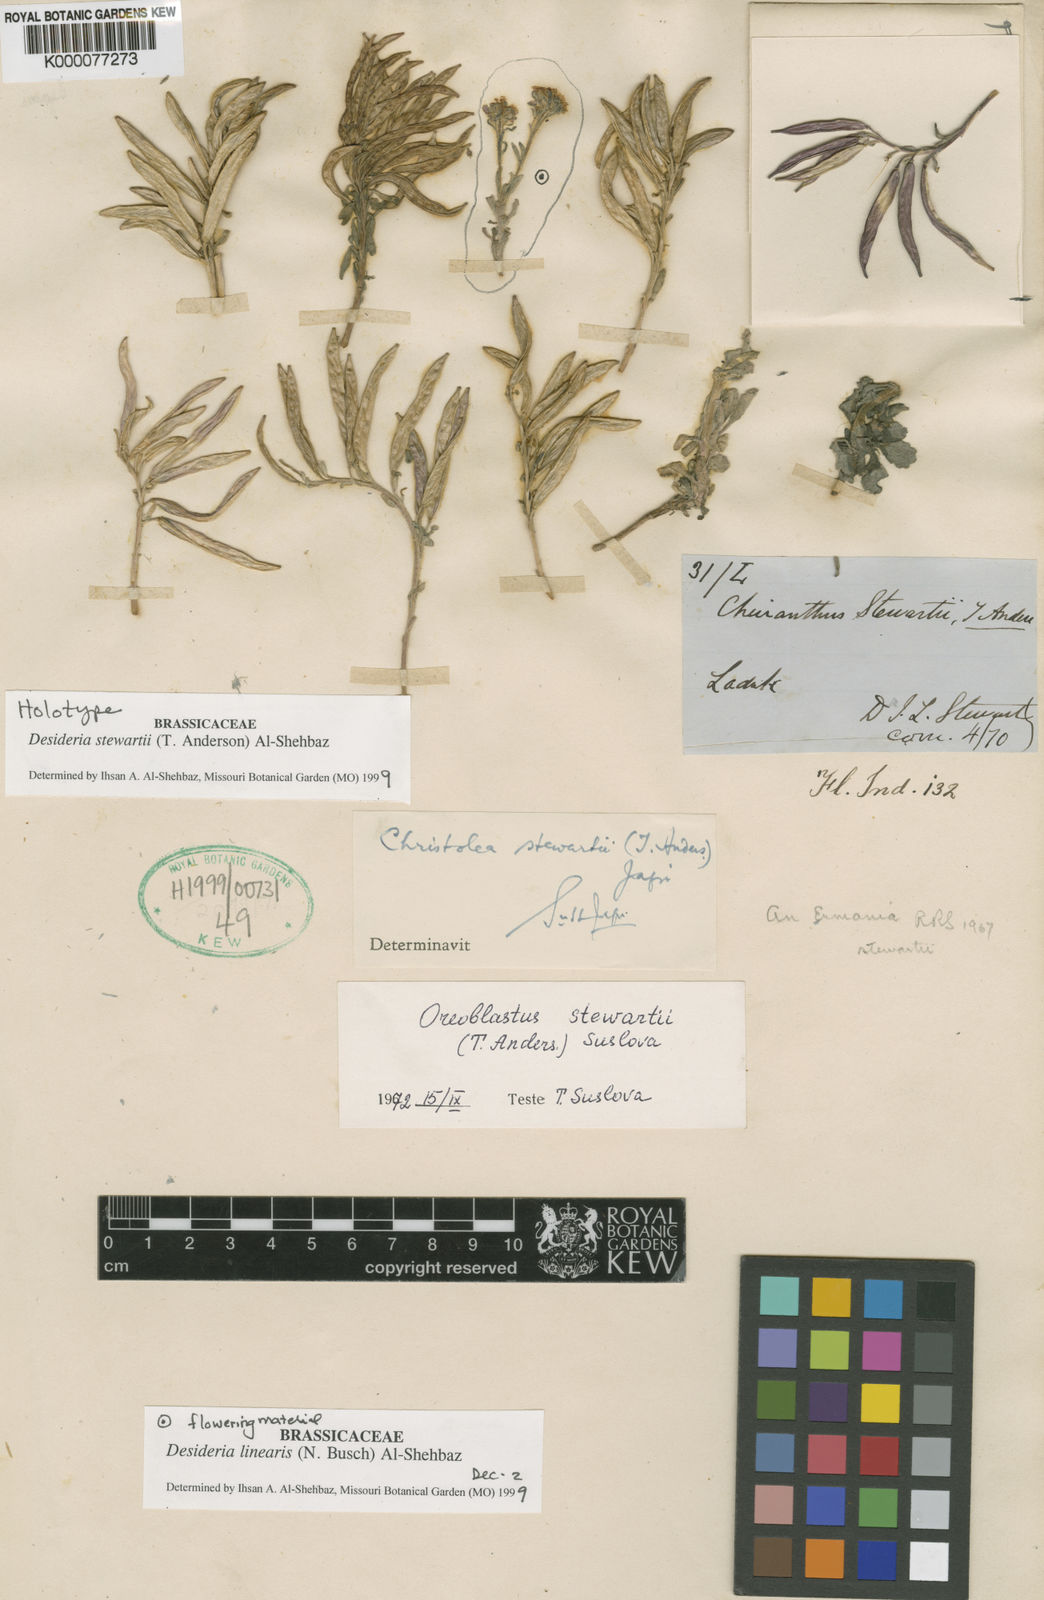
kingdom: Plantae
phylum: Tracheophyta
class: Magnoliopsida
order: Brassicales
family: Brassicaceae
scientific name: Brassicaceae
